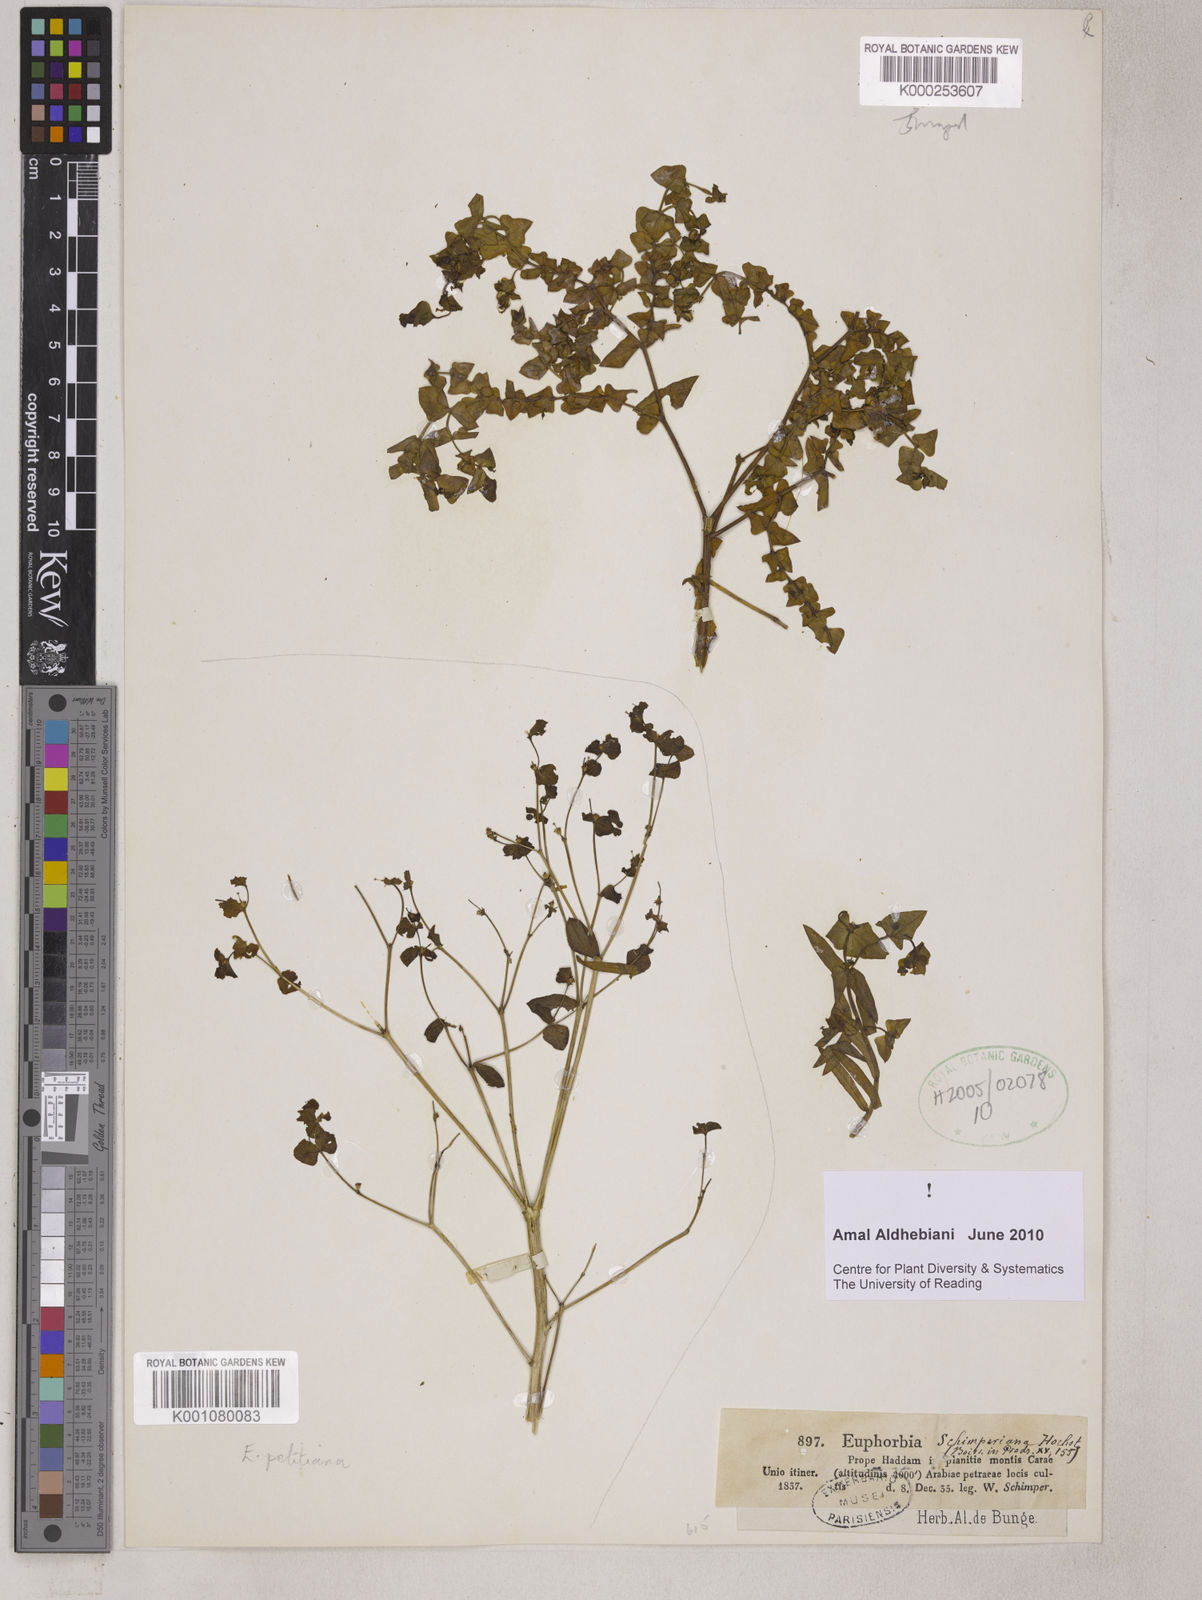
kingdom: Plantae
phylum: Tracheophyta
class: Magnoliopsida
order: Malpighiales
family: Euphorbiaceae
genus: Euphorbia
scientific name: Euphorbia schimperiana
